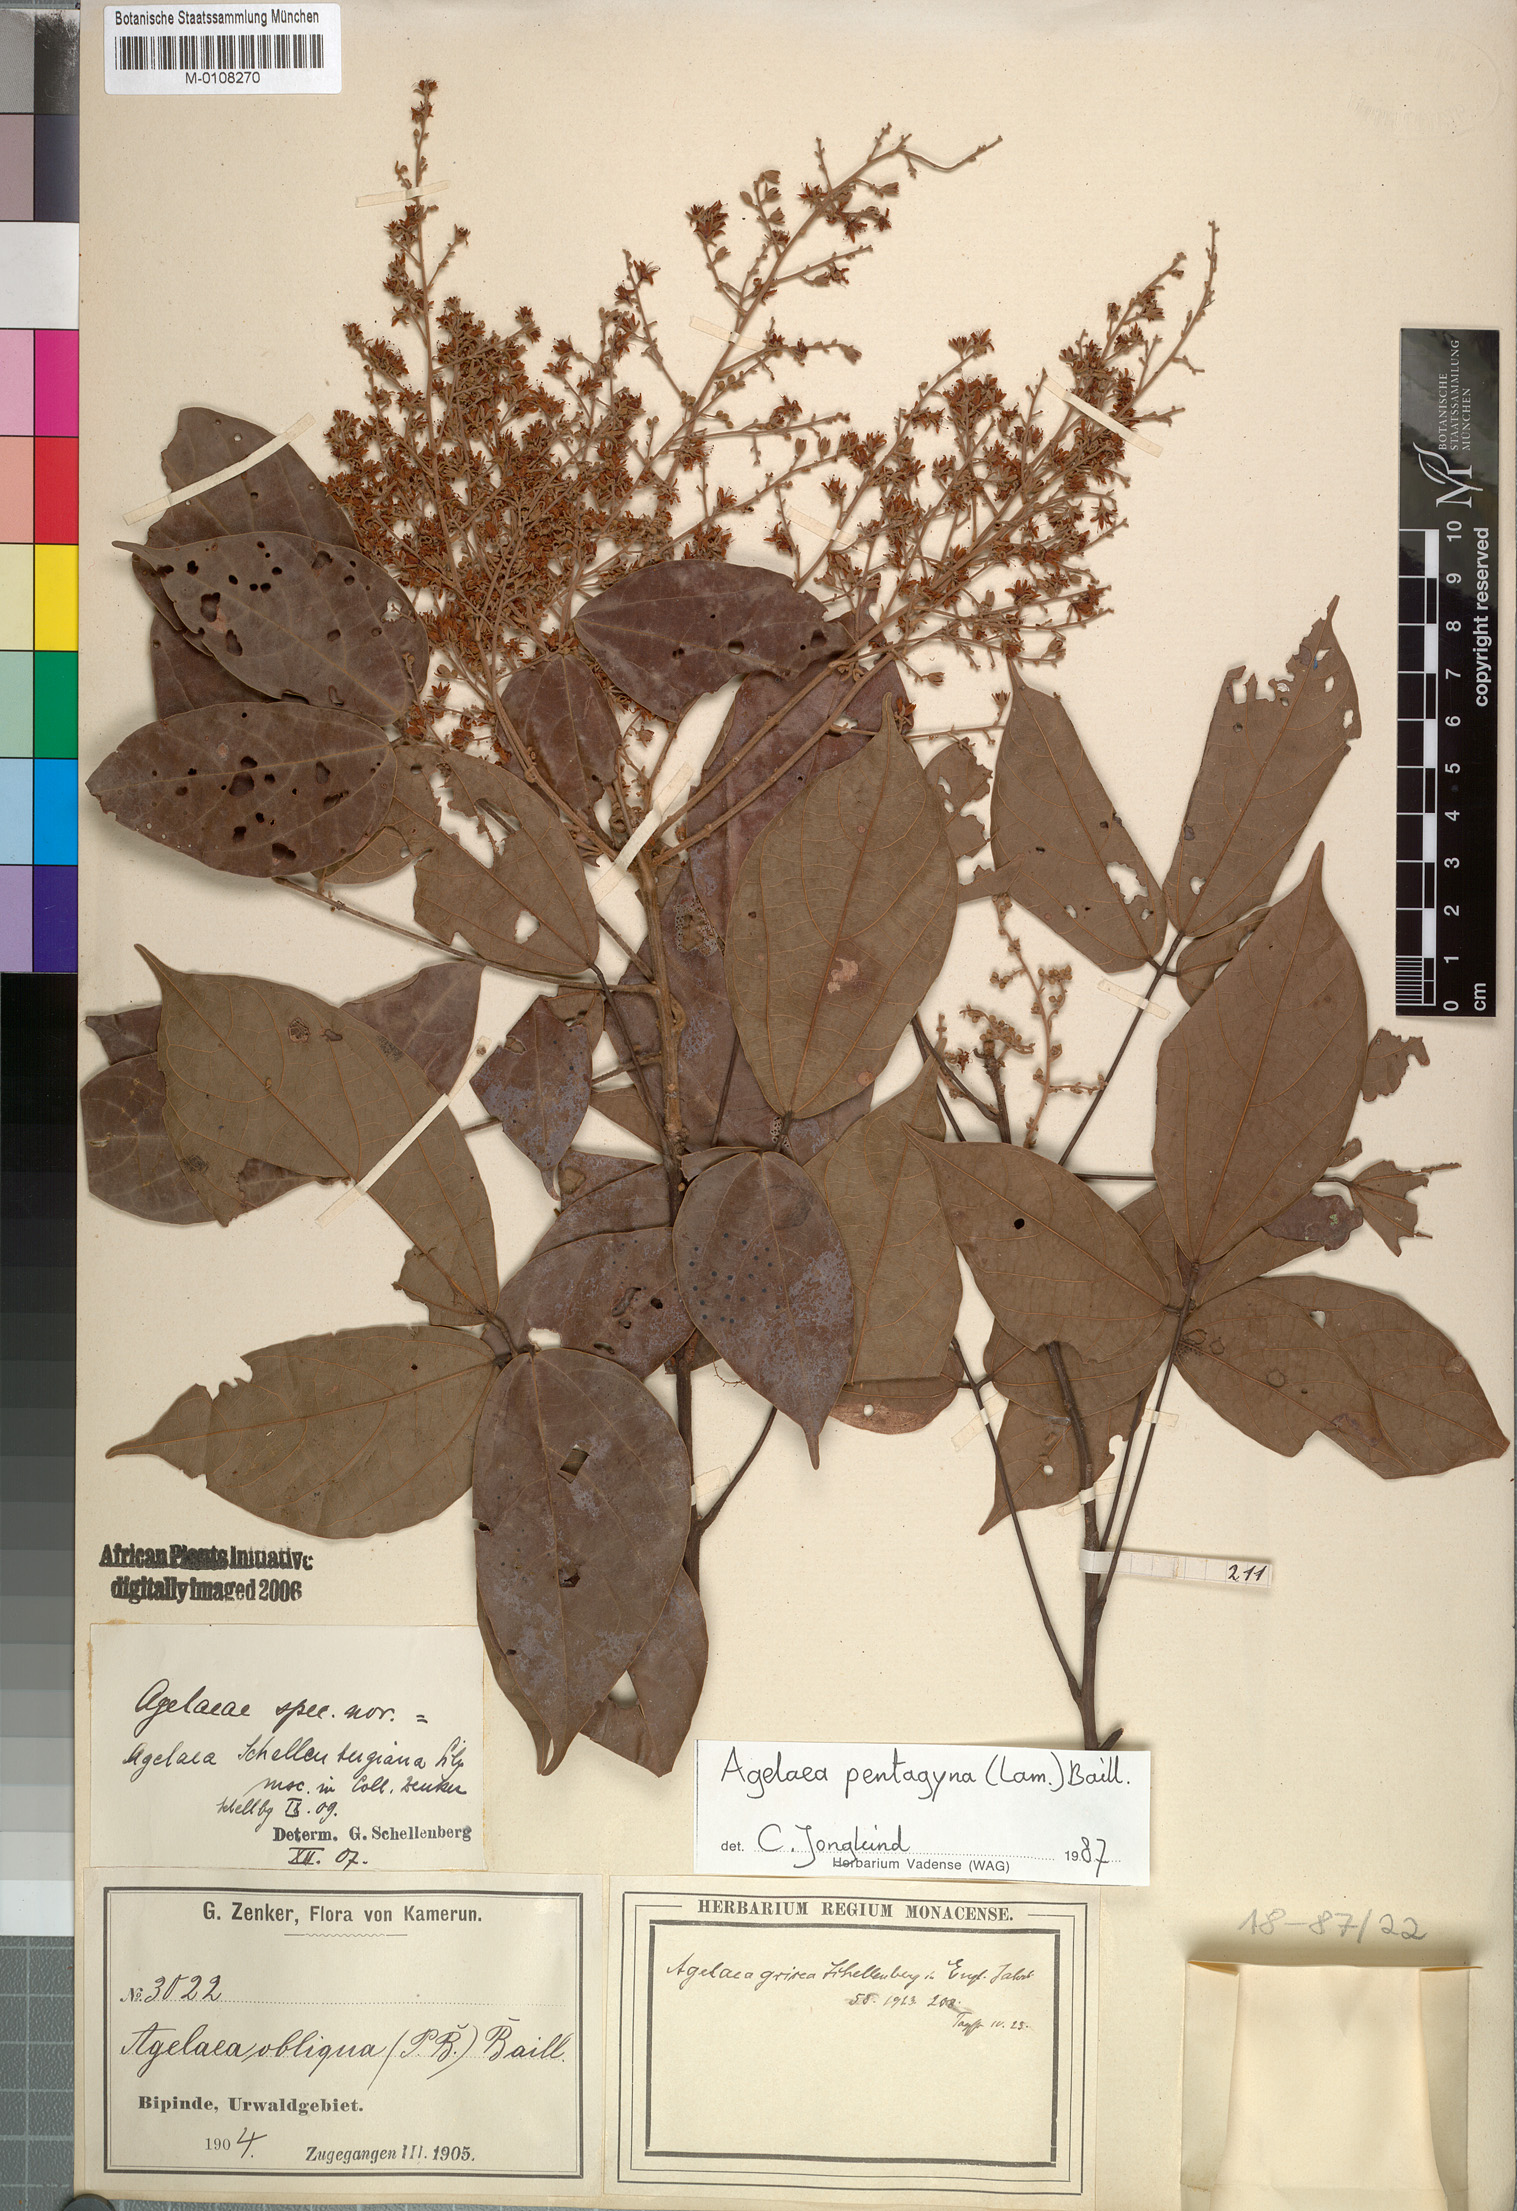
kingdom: Plantae
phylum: Tracheophyta
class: Magnoliopsida
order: Oxalidales
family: Connaraceae
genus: Agelaea
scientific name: Agelaea pentagyna
